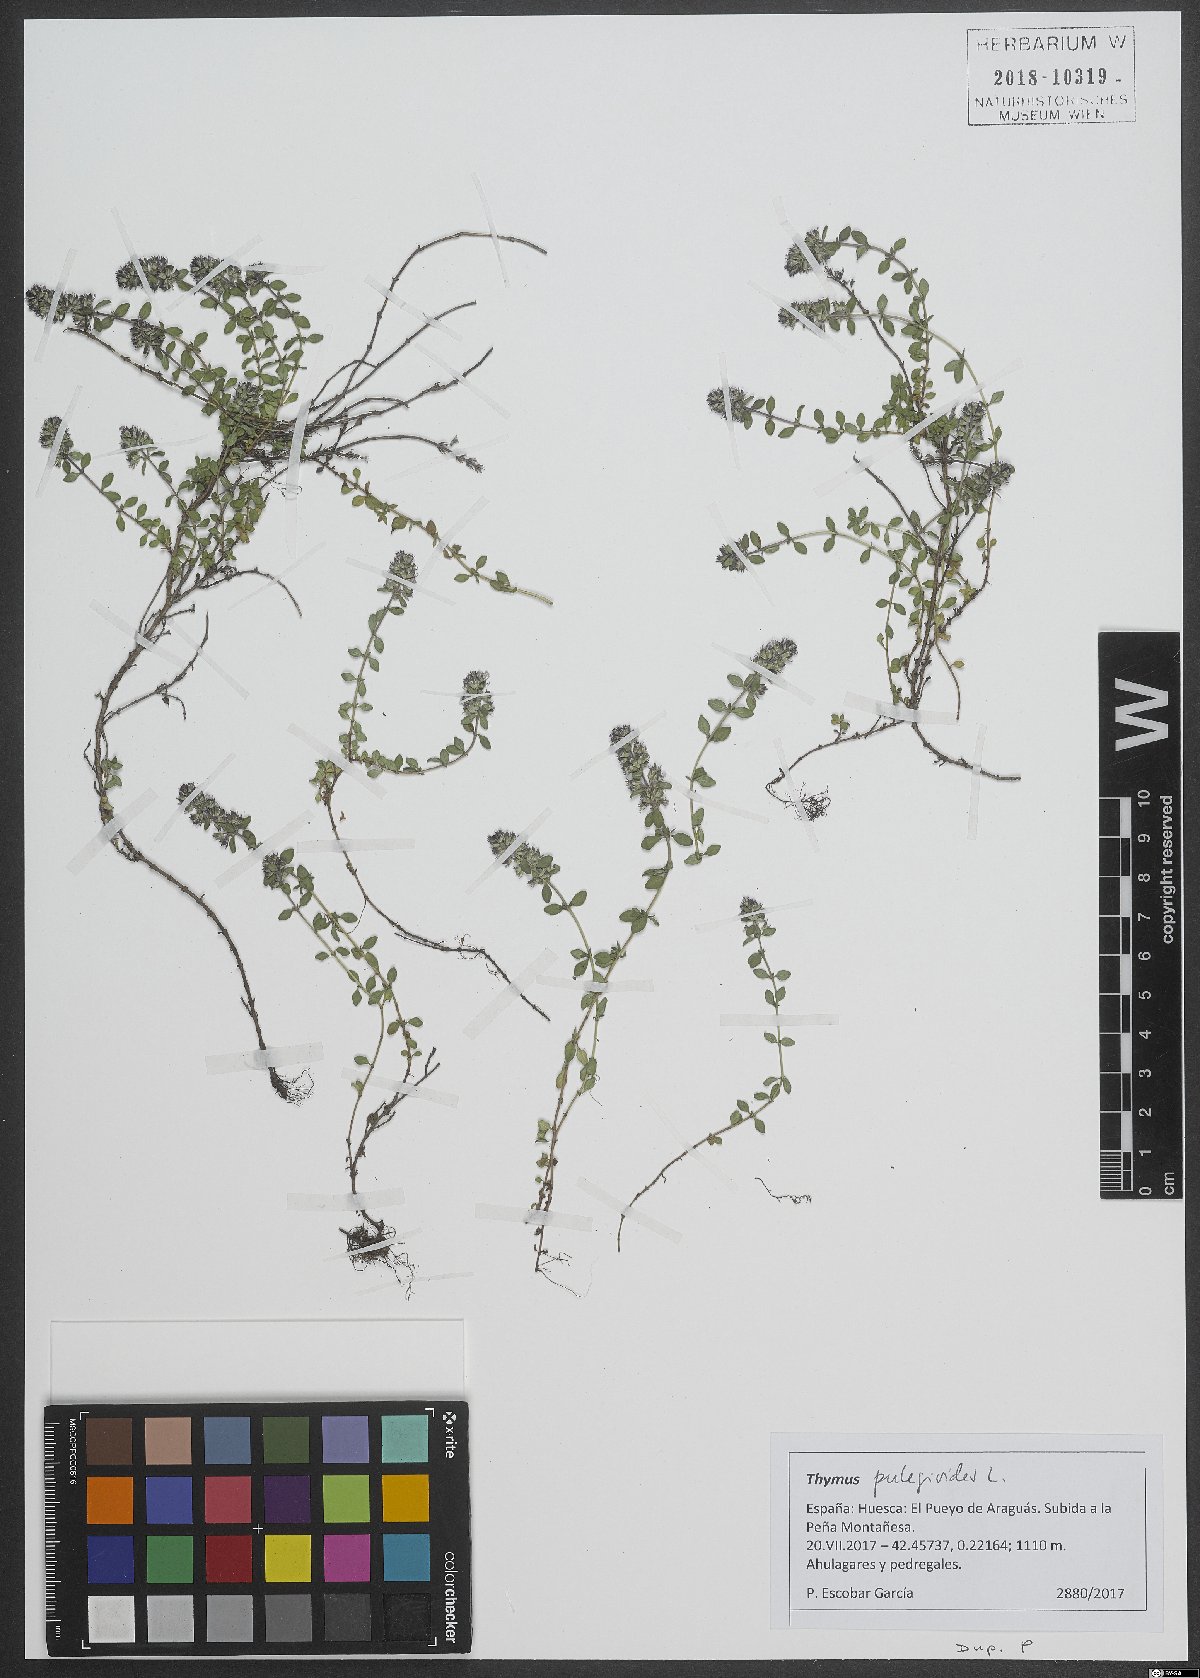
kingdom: Plantae
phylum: Tracheophyta
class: Magnoliopsida
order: Lamiales
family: Lamiaceae
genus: Thymus
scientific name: Thymus pulegioides
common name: Large thyme
